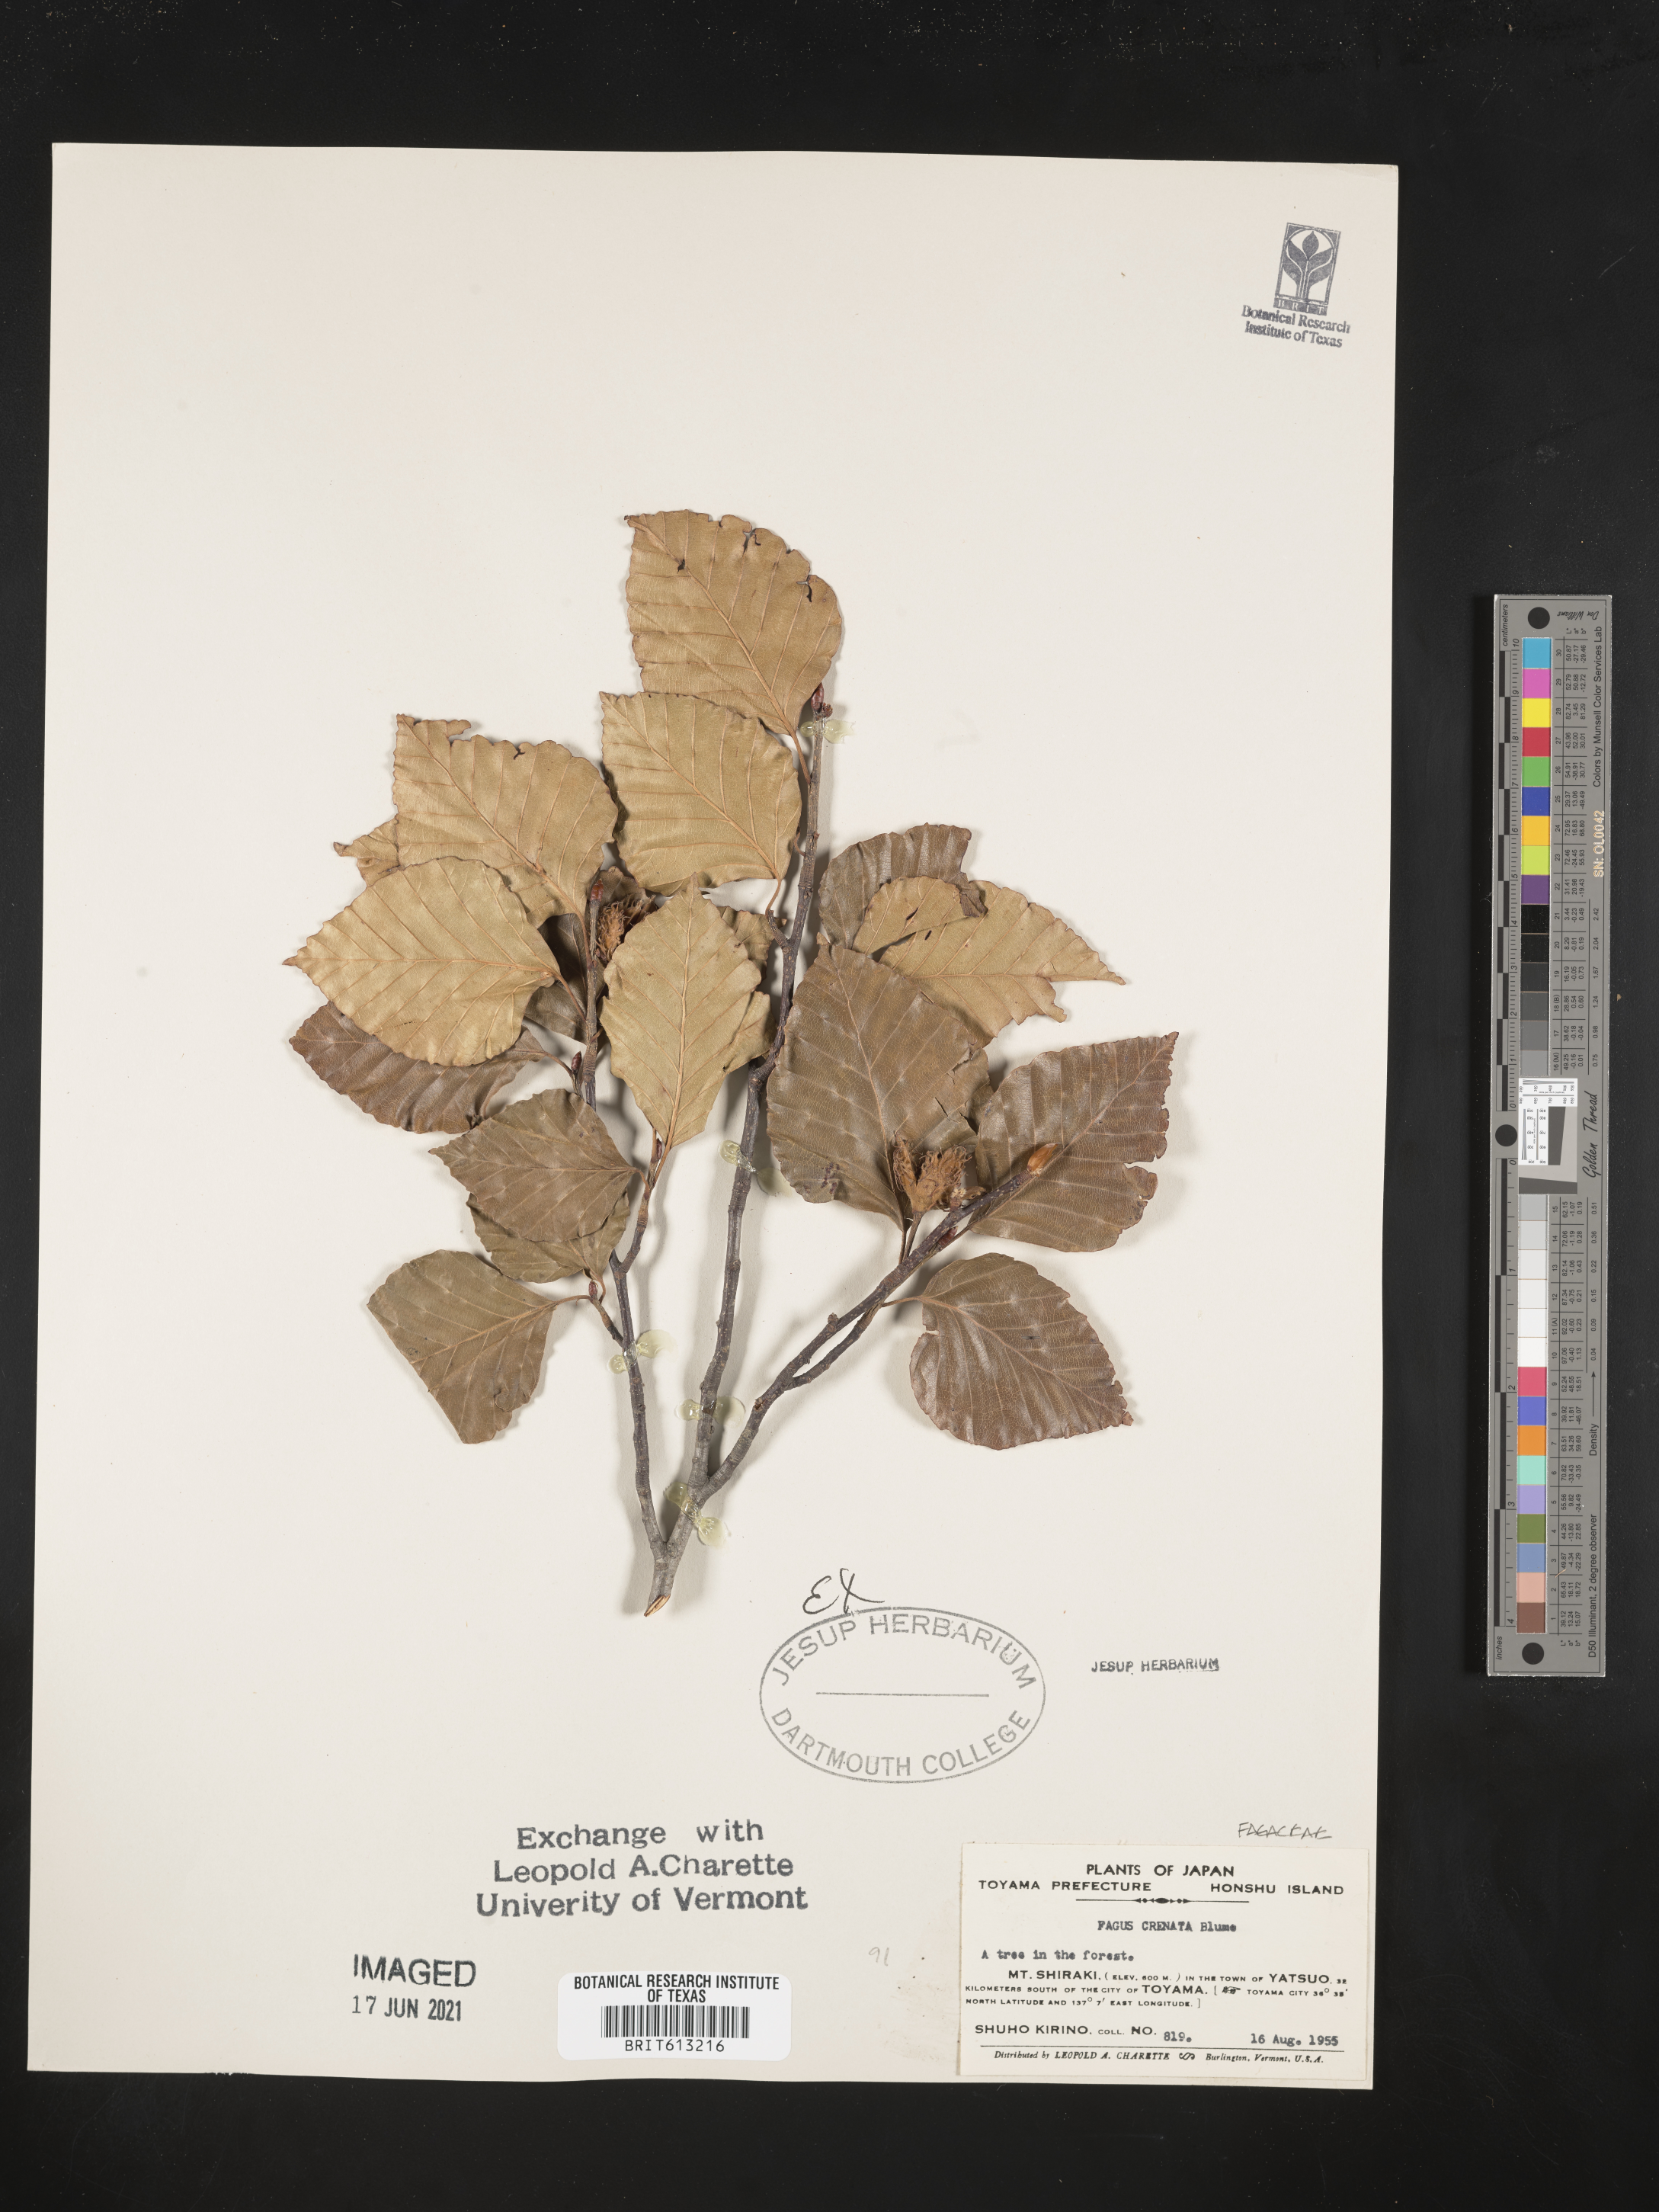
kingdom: Plantae
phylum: Tracheophyta
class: Magnoliopsida
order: Fagales
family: Fagaceae
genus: Fagus
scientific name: Fagus crenata
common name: Japanese beech
